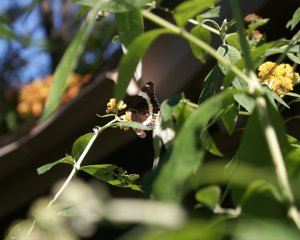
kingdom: Animalia
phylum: Arthropoda
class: Insecta
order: Lepidoptera
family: Nymphalidae
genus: Limenitis
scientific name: Limenitis arthemis
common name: Red-spotted Admiral
